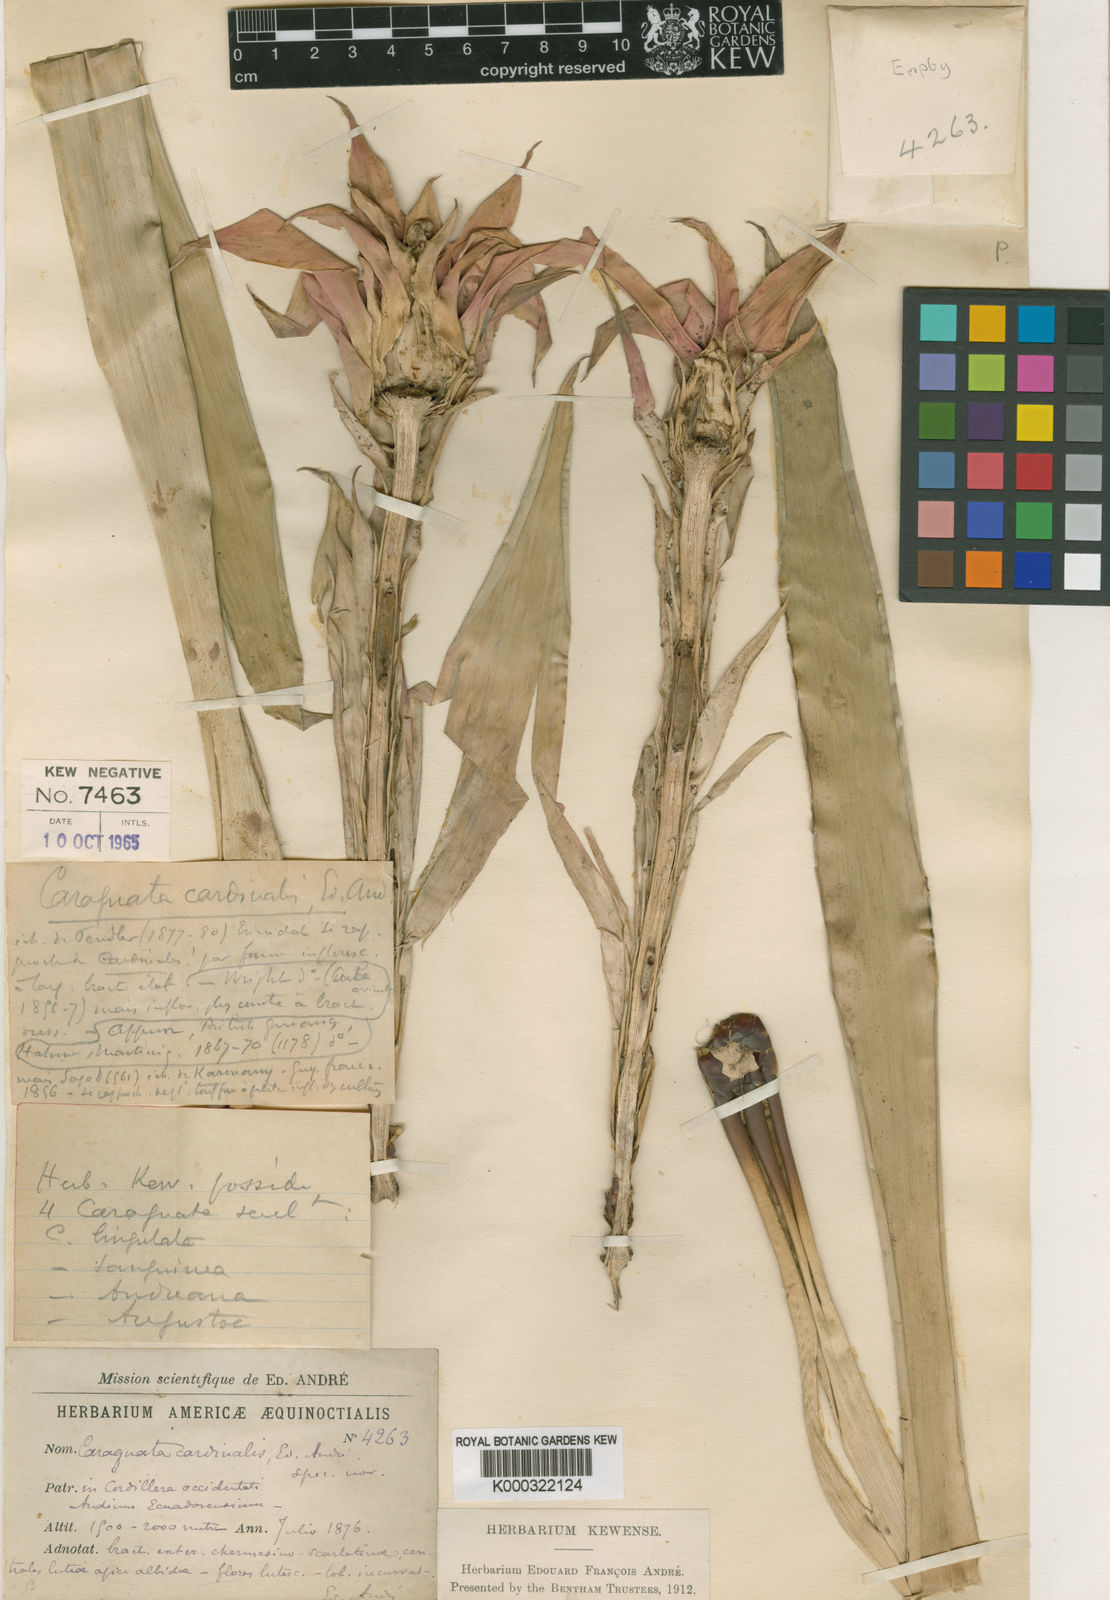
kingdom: Plantae
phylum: Tracheophyta
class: Liliopsida
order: Poales
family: Bromeliaceae
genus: Guzmania
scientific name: Guzmania lingulata
